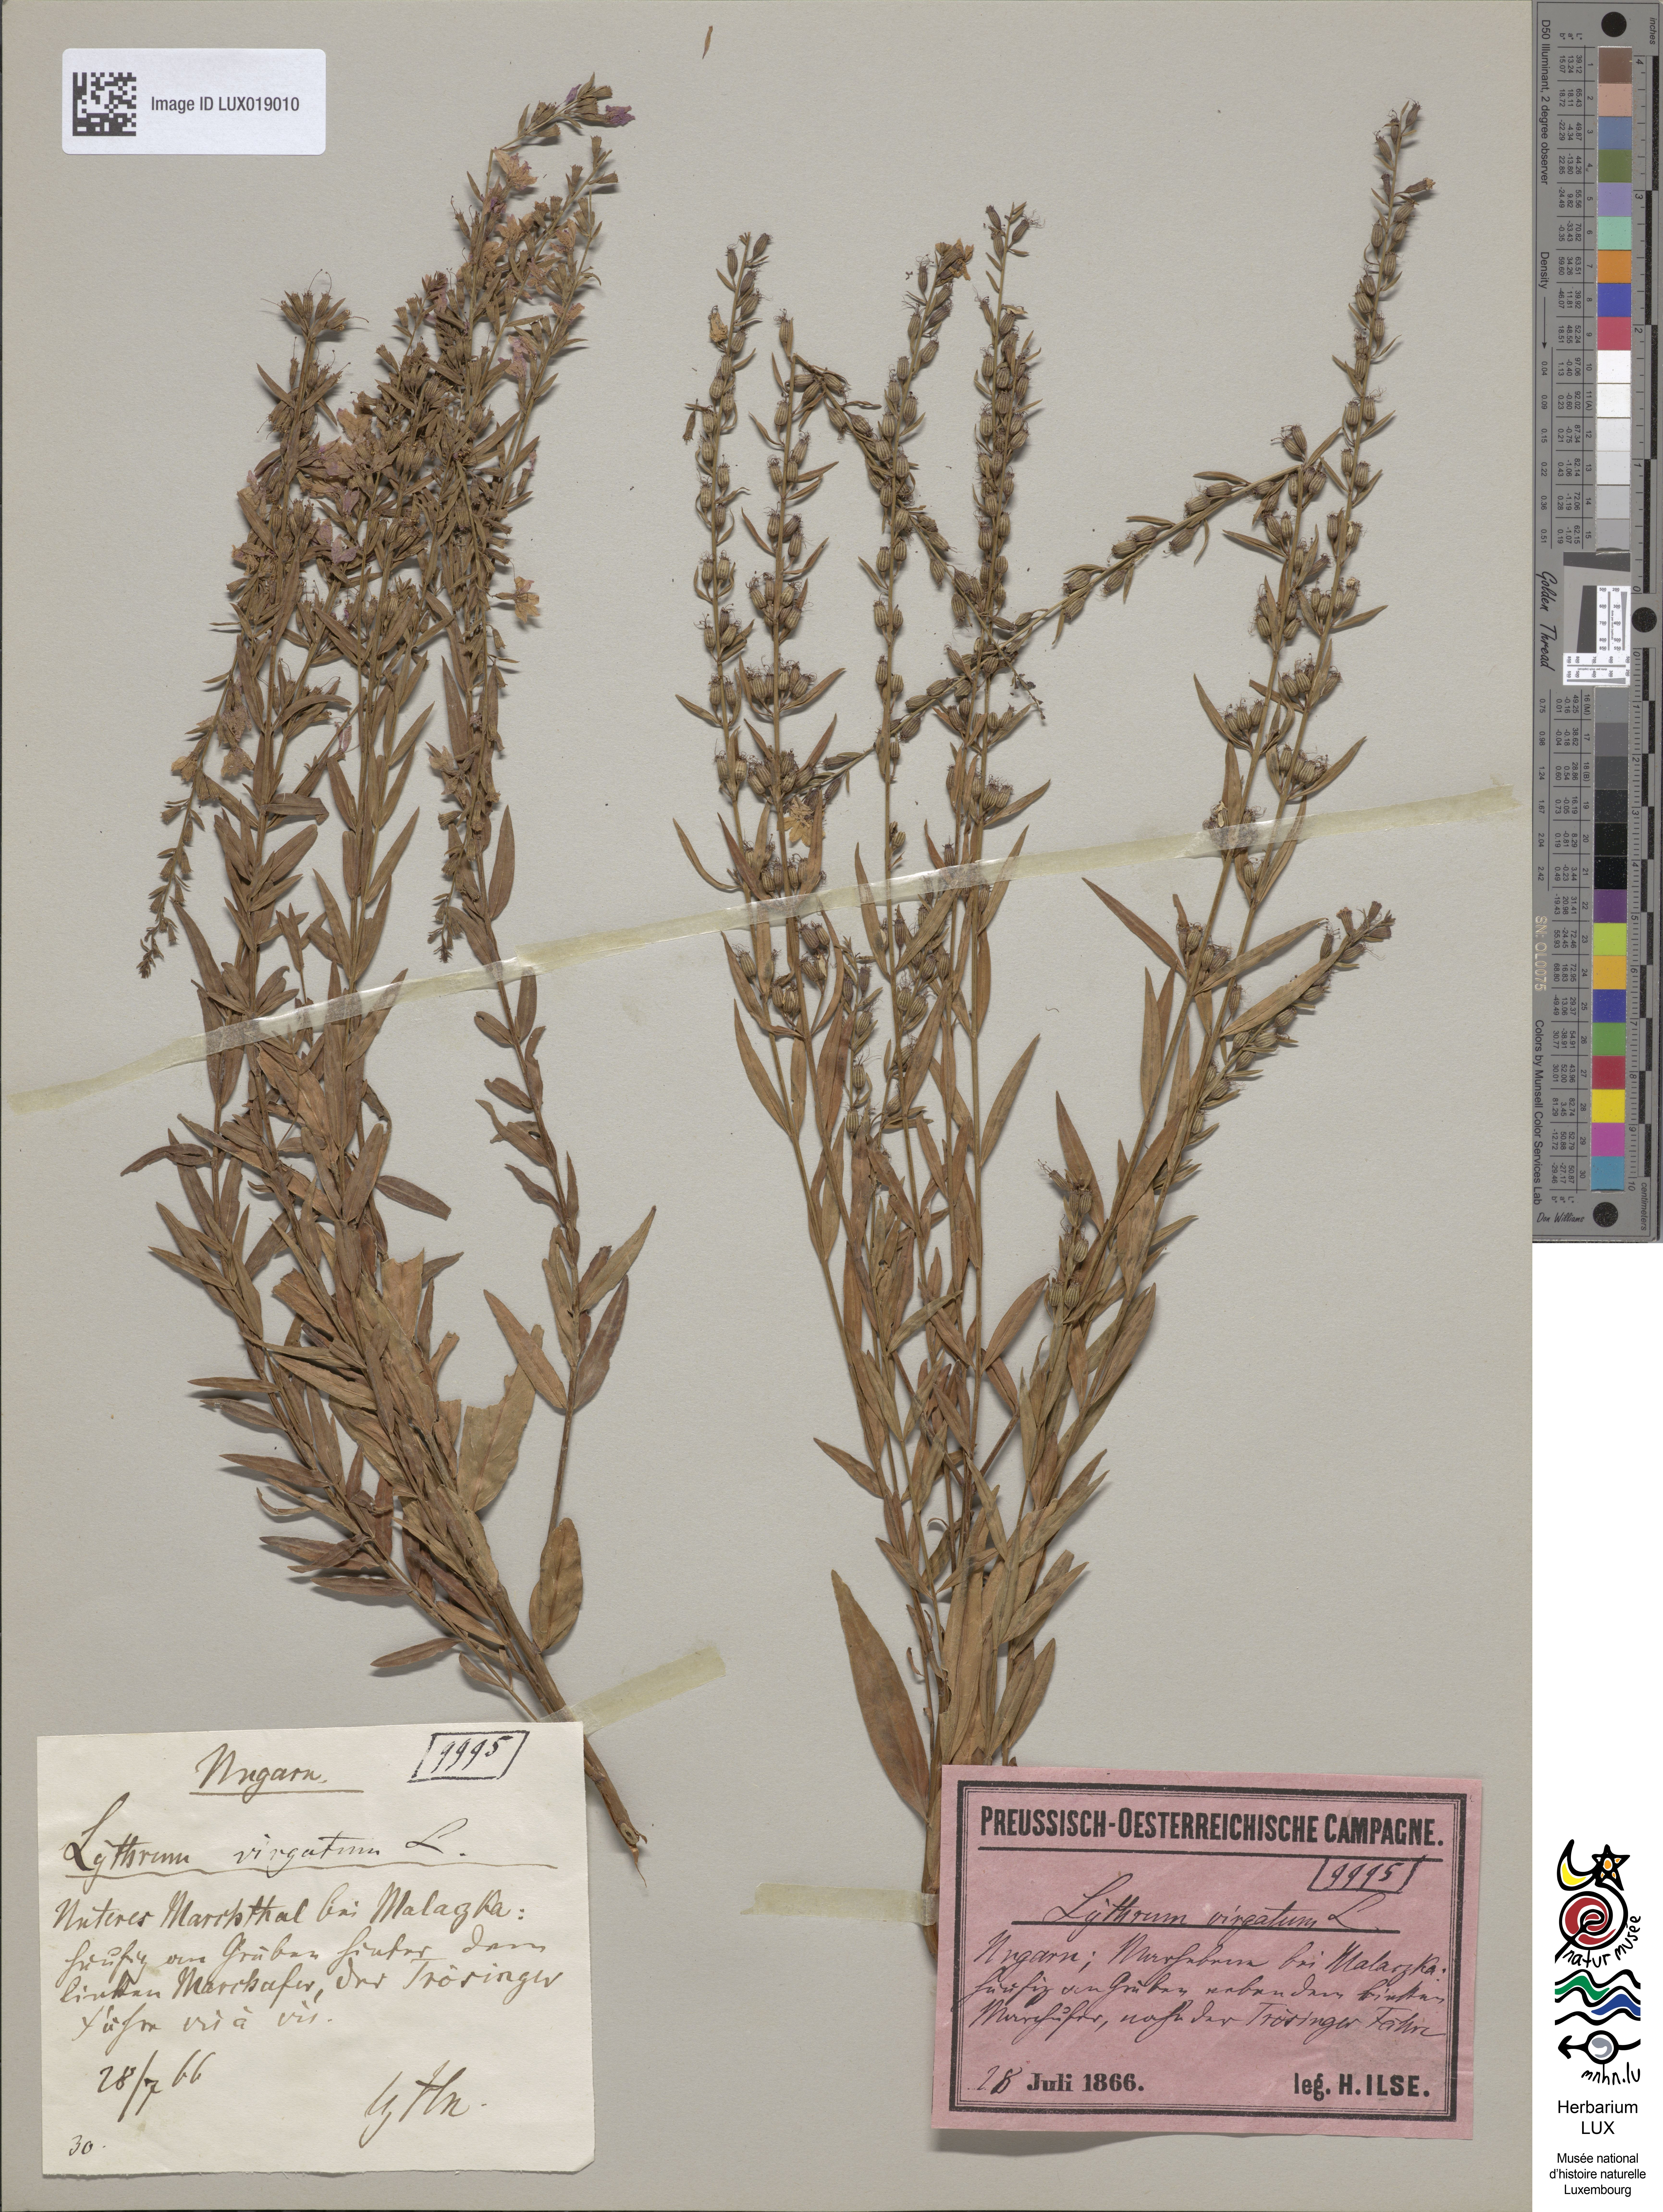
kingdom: Plantae
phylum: Tracheophyta
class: Magnoliopsida
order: Myrtales
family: Lythraceae
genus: Lythrum
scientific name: Lythrum virgatum
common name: European wand loosestrife
